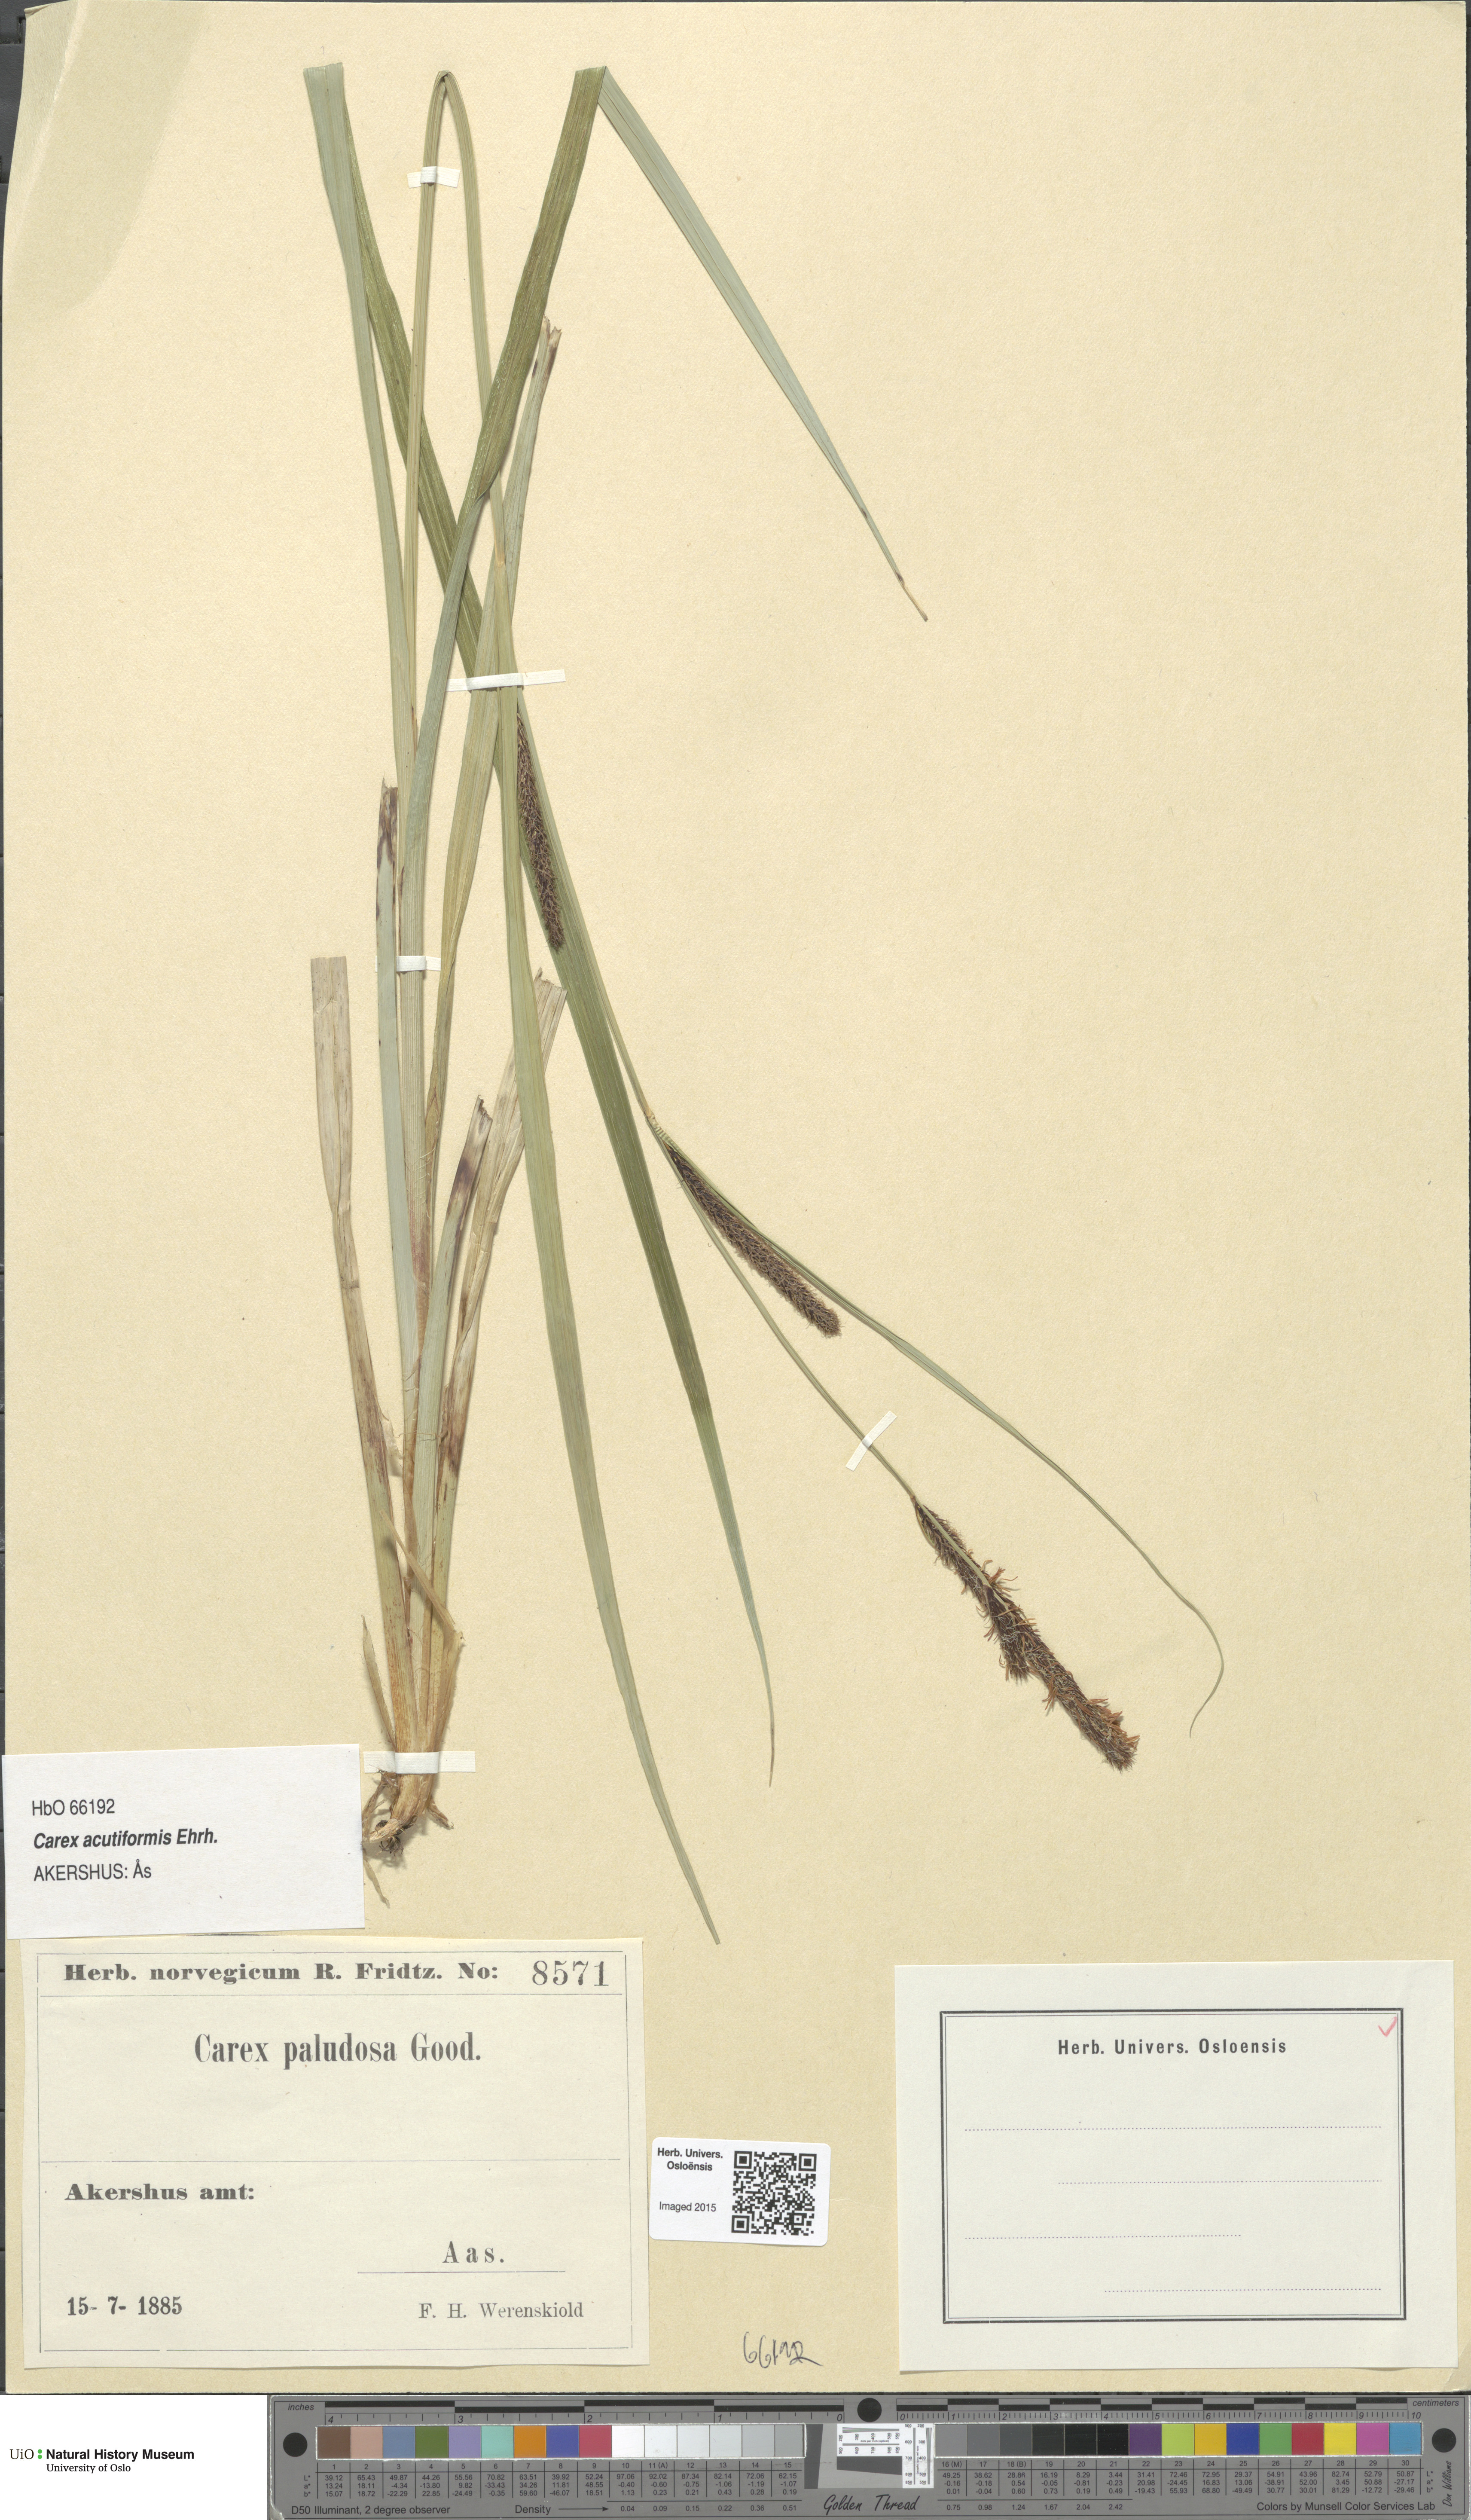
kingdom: Plantae
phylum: Tracheophyta
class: Liliopsida
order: Poales
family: Cyperaceae
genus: Carex
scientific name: Carex acutiformis
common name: Lesser pond-sedge
